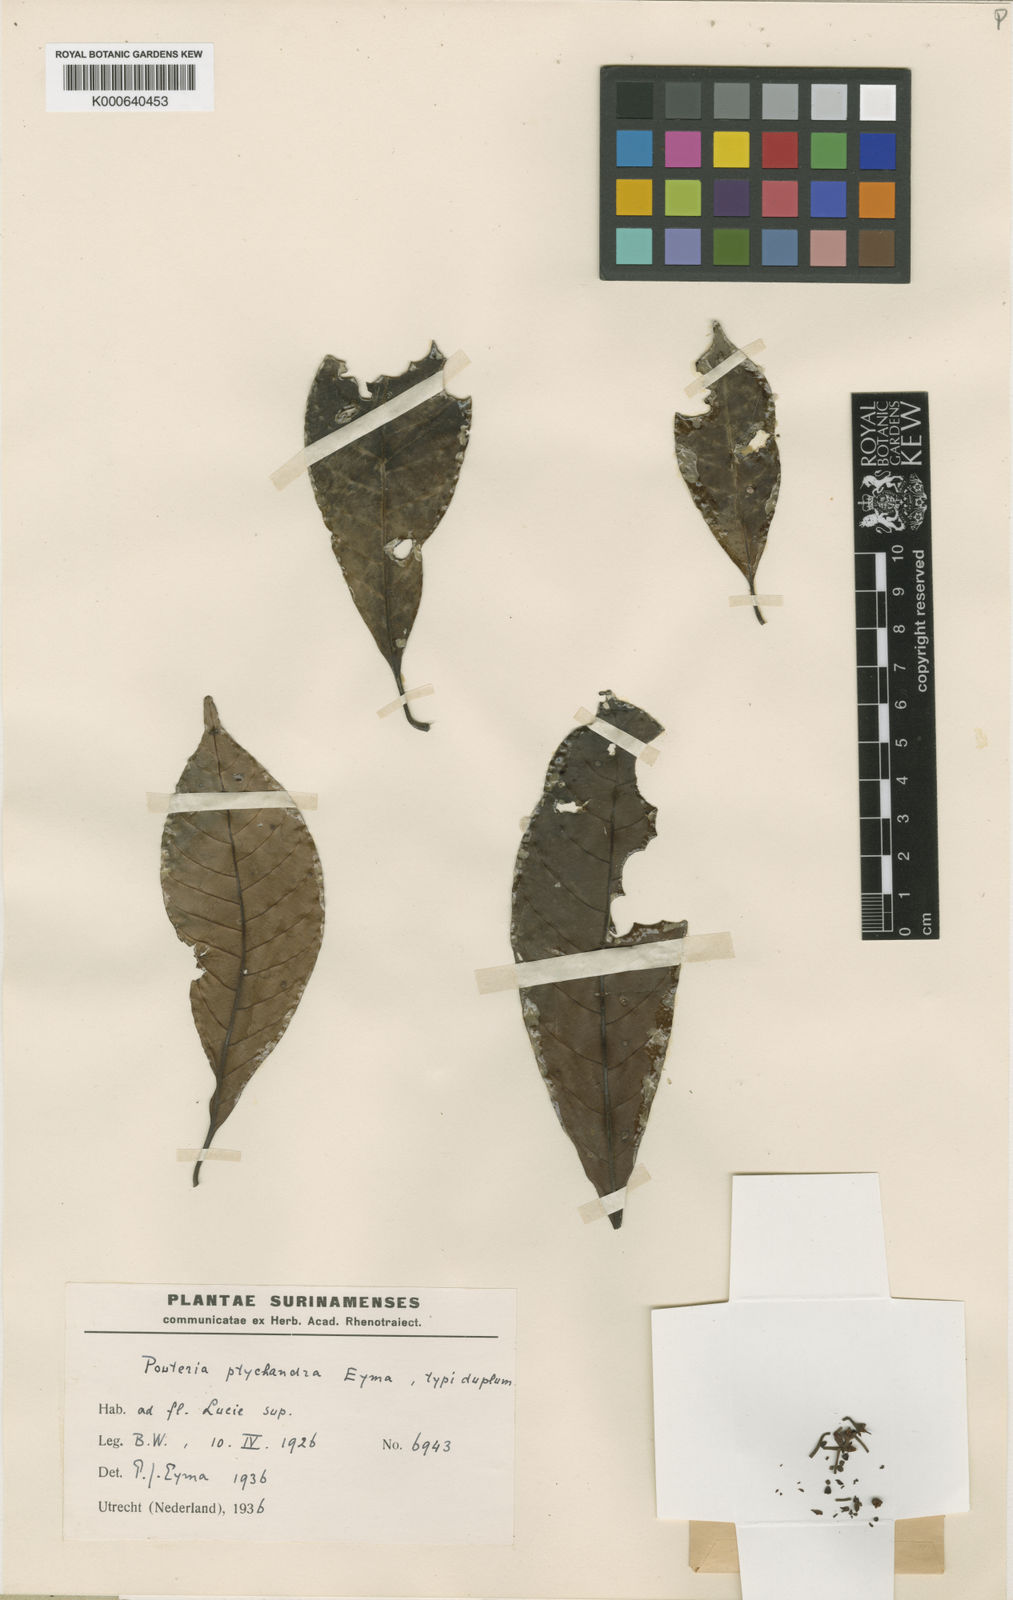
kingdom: Plantae
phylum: Tracheophyta
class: Magnoliopsida
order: Ericales
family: Sapotaceae
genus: Pradosia
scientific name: Pradosia ptychandra
